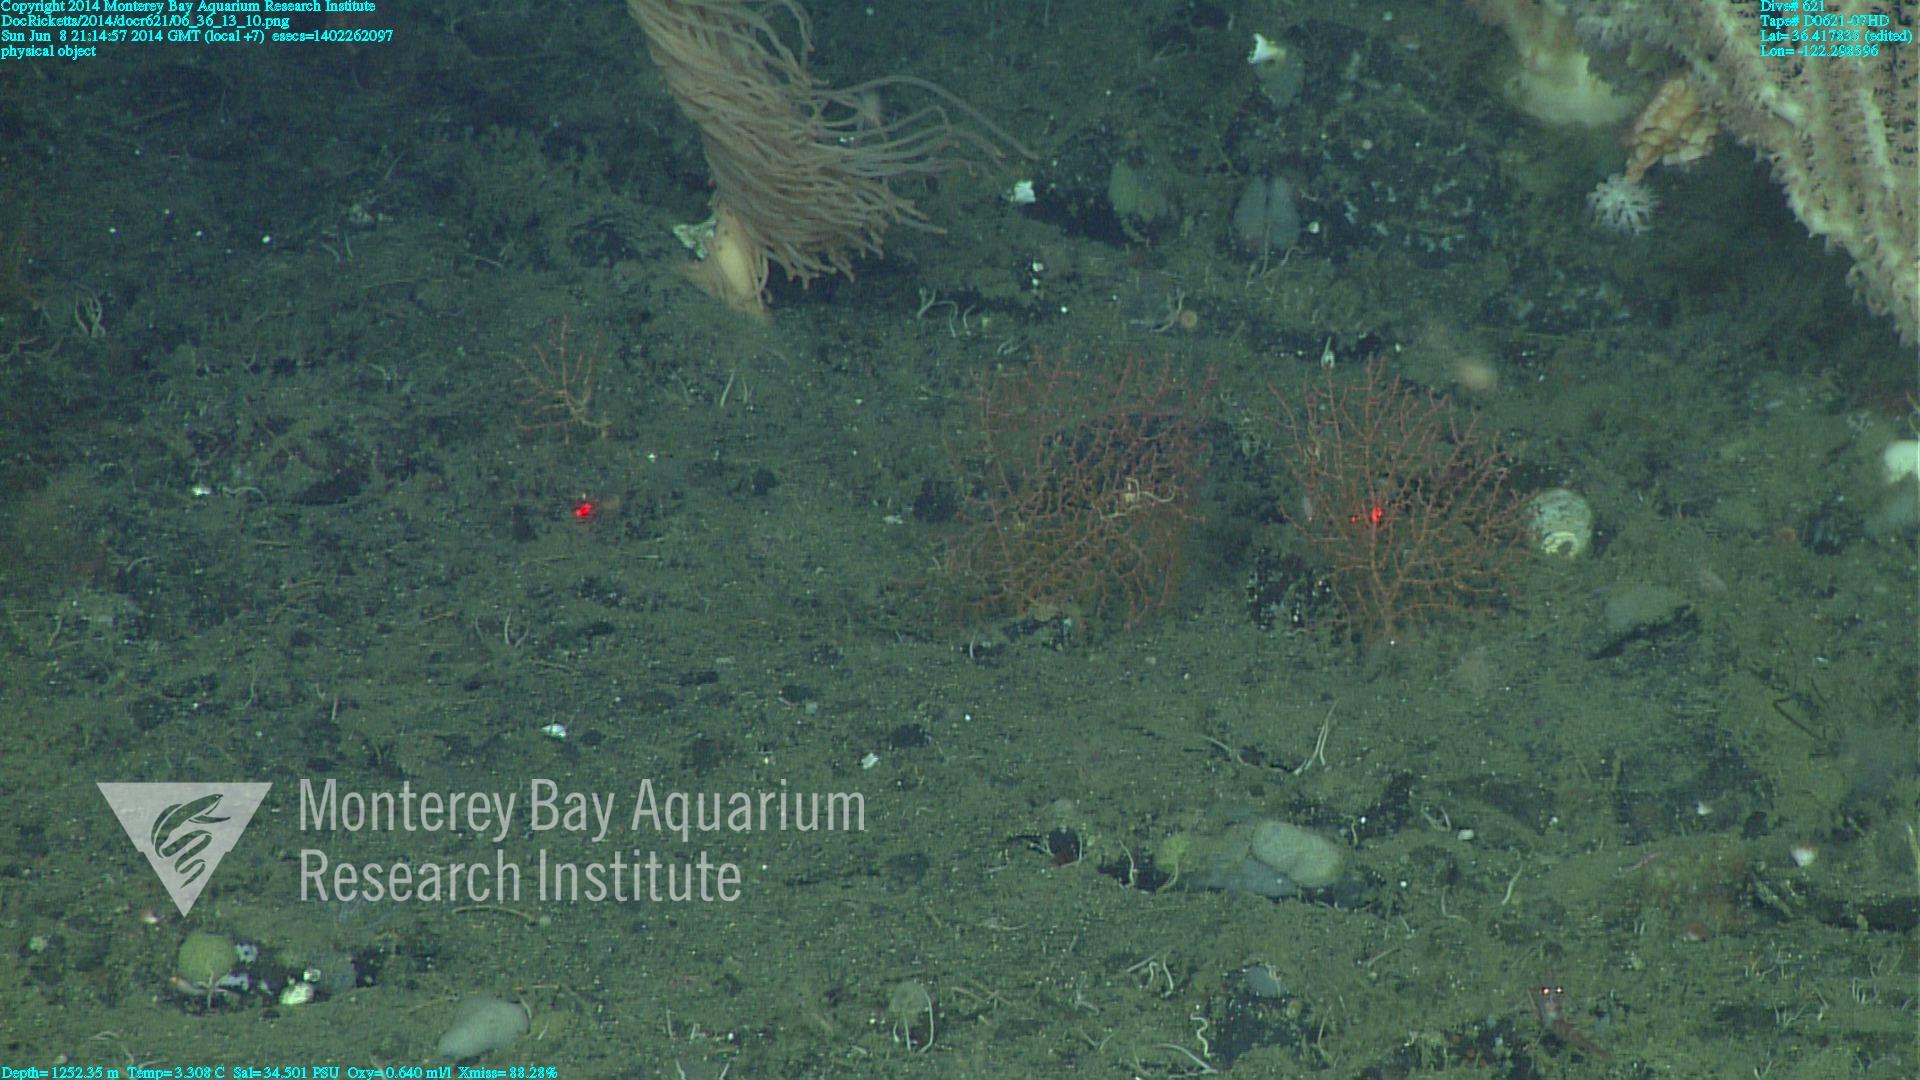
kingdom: Animalia
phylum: Cnidaria
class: Anthozoa
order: Malacalcyonacea
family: Gorgoniidae
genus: Callistephanus
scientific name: Callistephanus kofoidi
